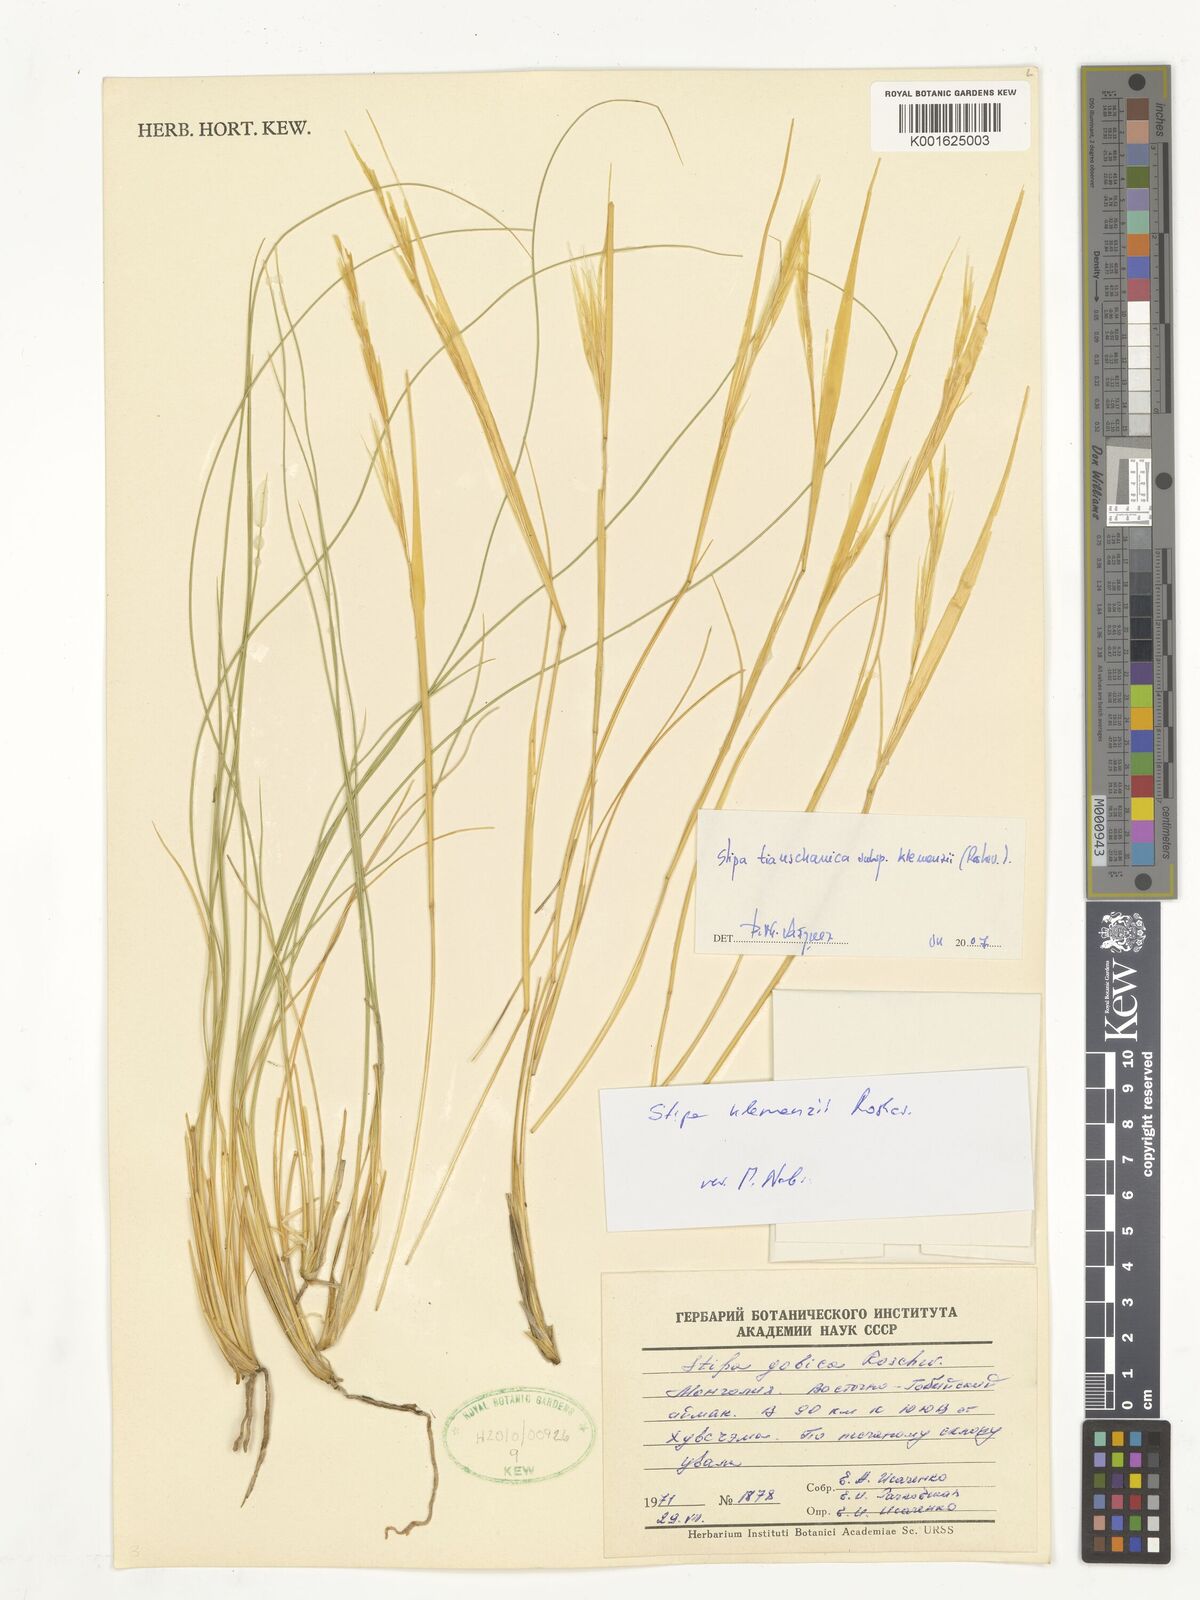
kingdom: Plantae
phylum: Tracheophyta
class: Liliopsida
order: Poales
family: Poaceae
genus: Stipa
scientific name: Stipa tianschanica
